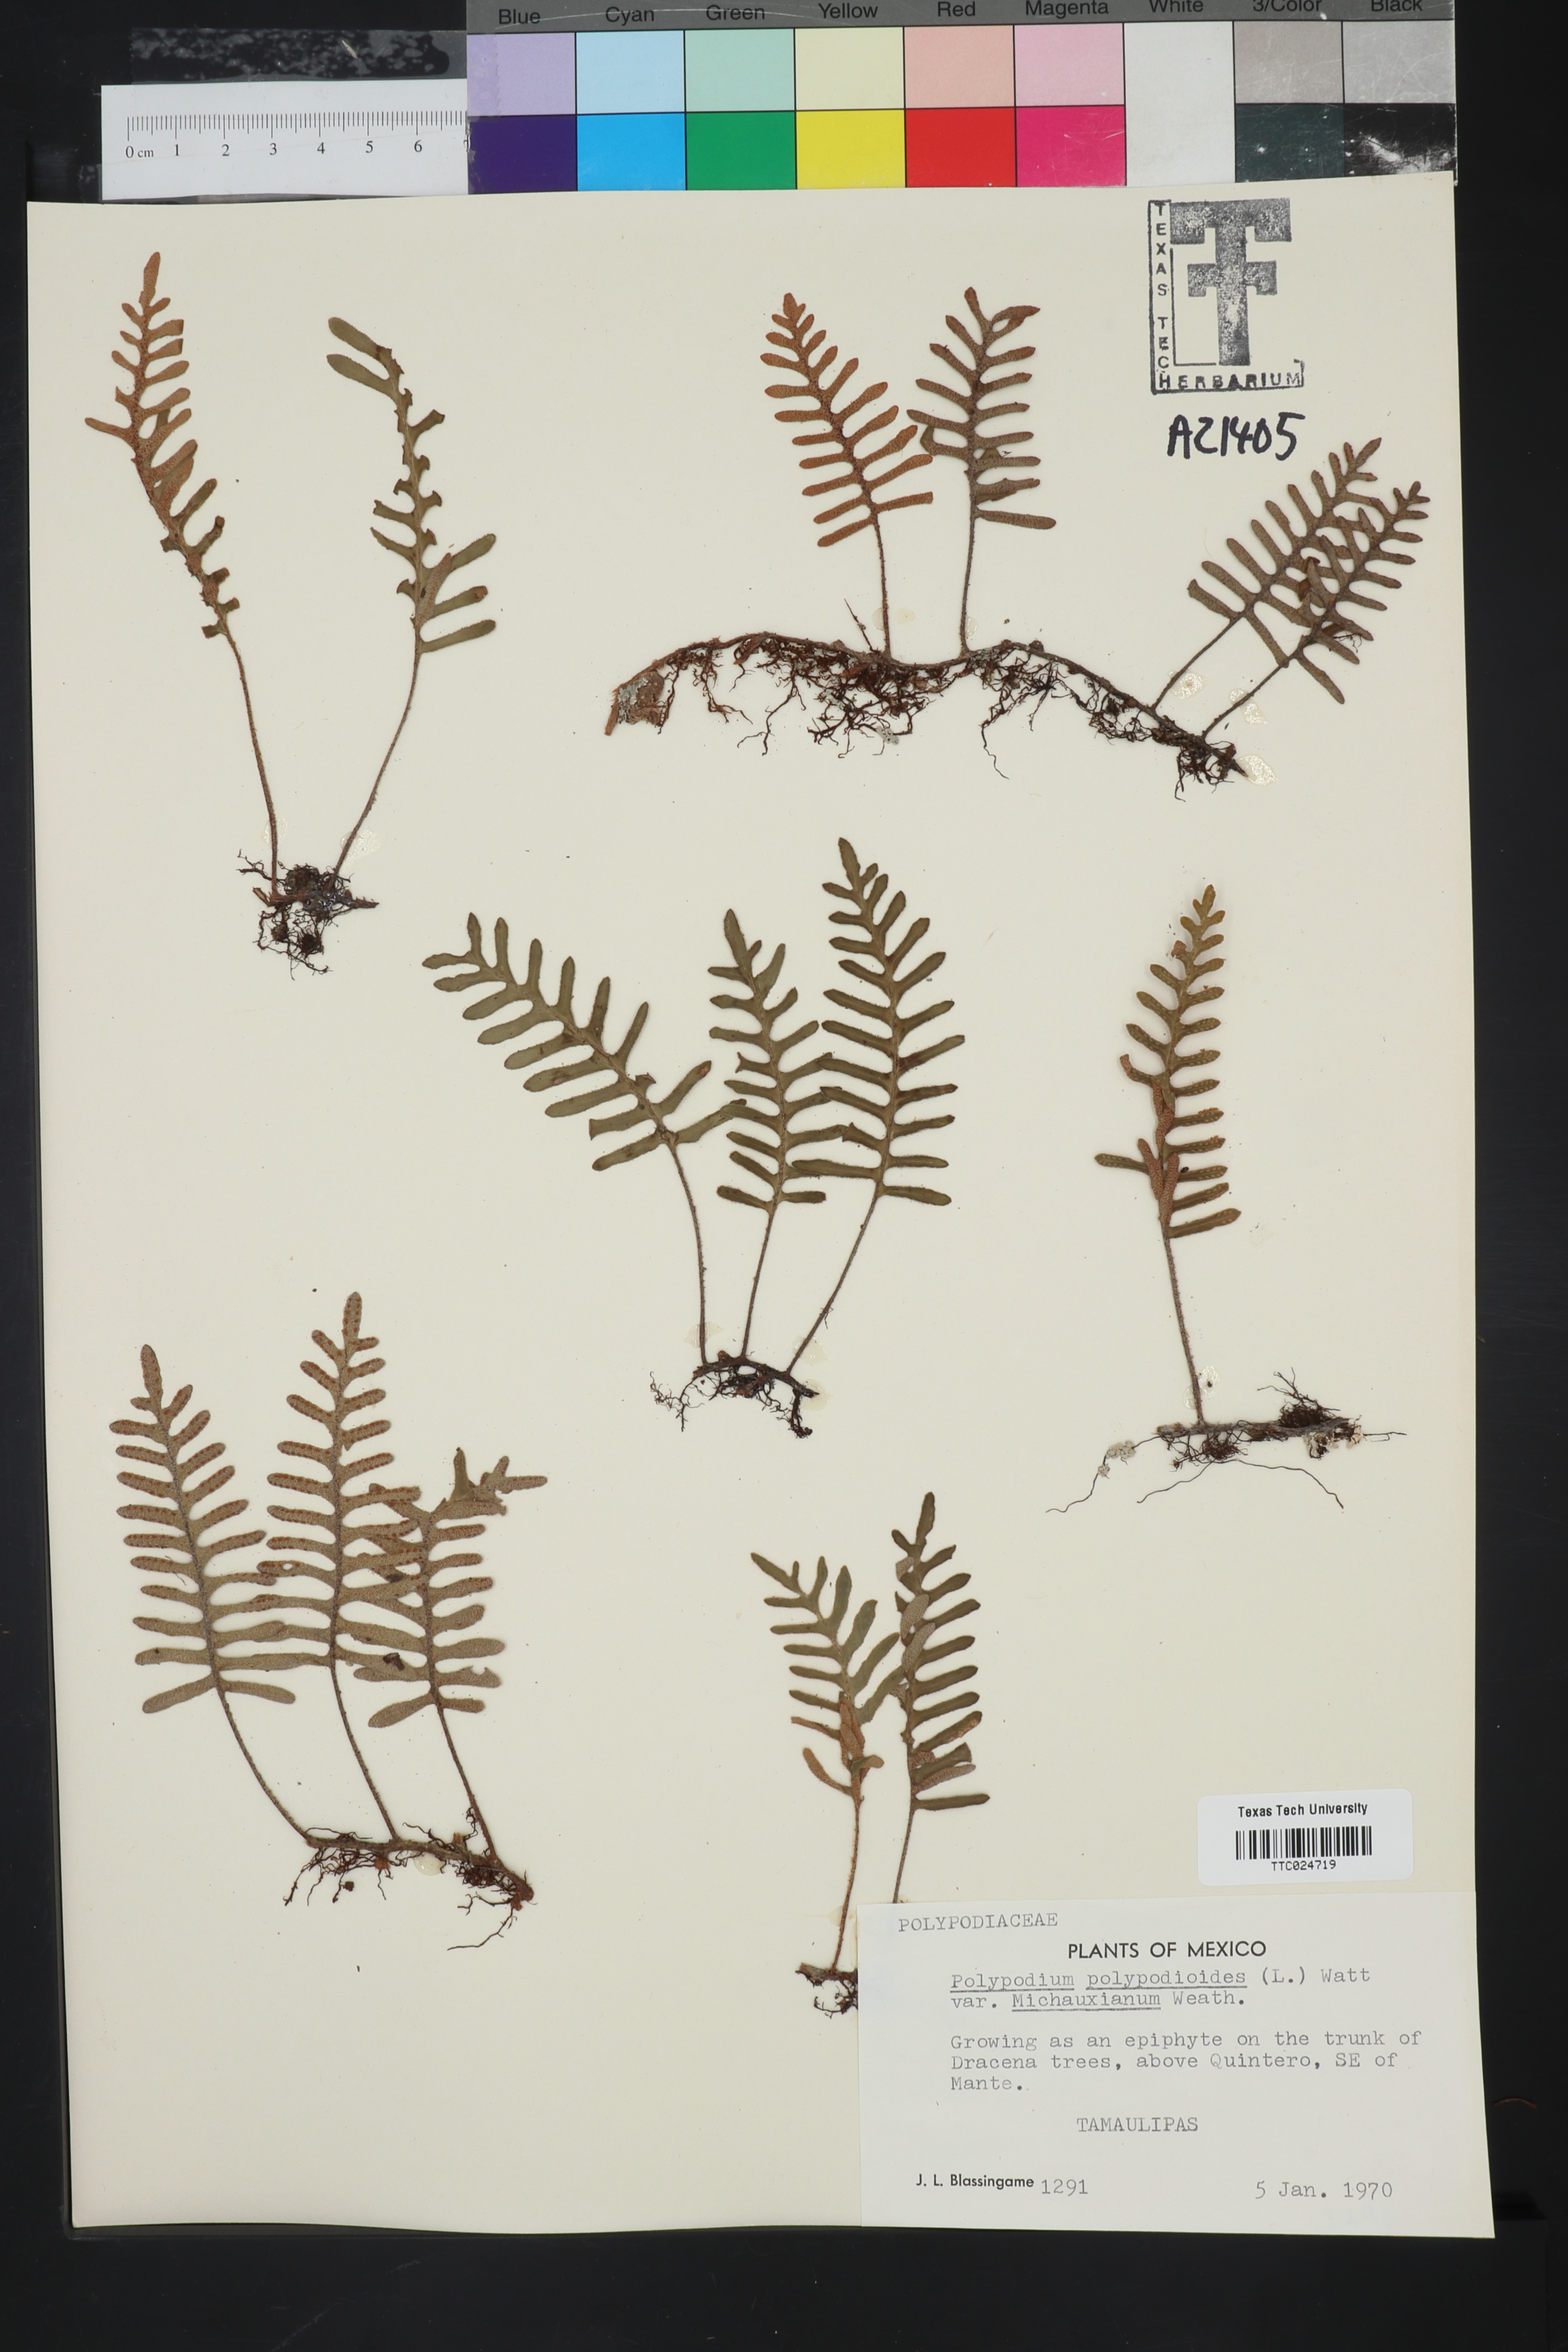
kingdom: Plantae
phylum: Tracheophyta
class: Polypodiopsida
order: Polypodiales
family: Polypodiaceae
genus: Pleopeltis
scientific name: Pleopeltis michauxiana
